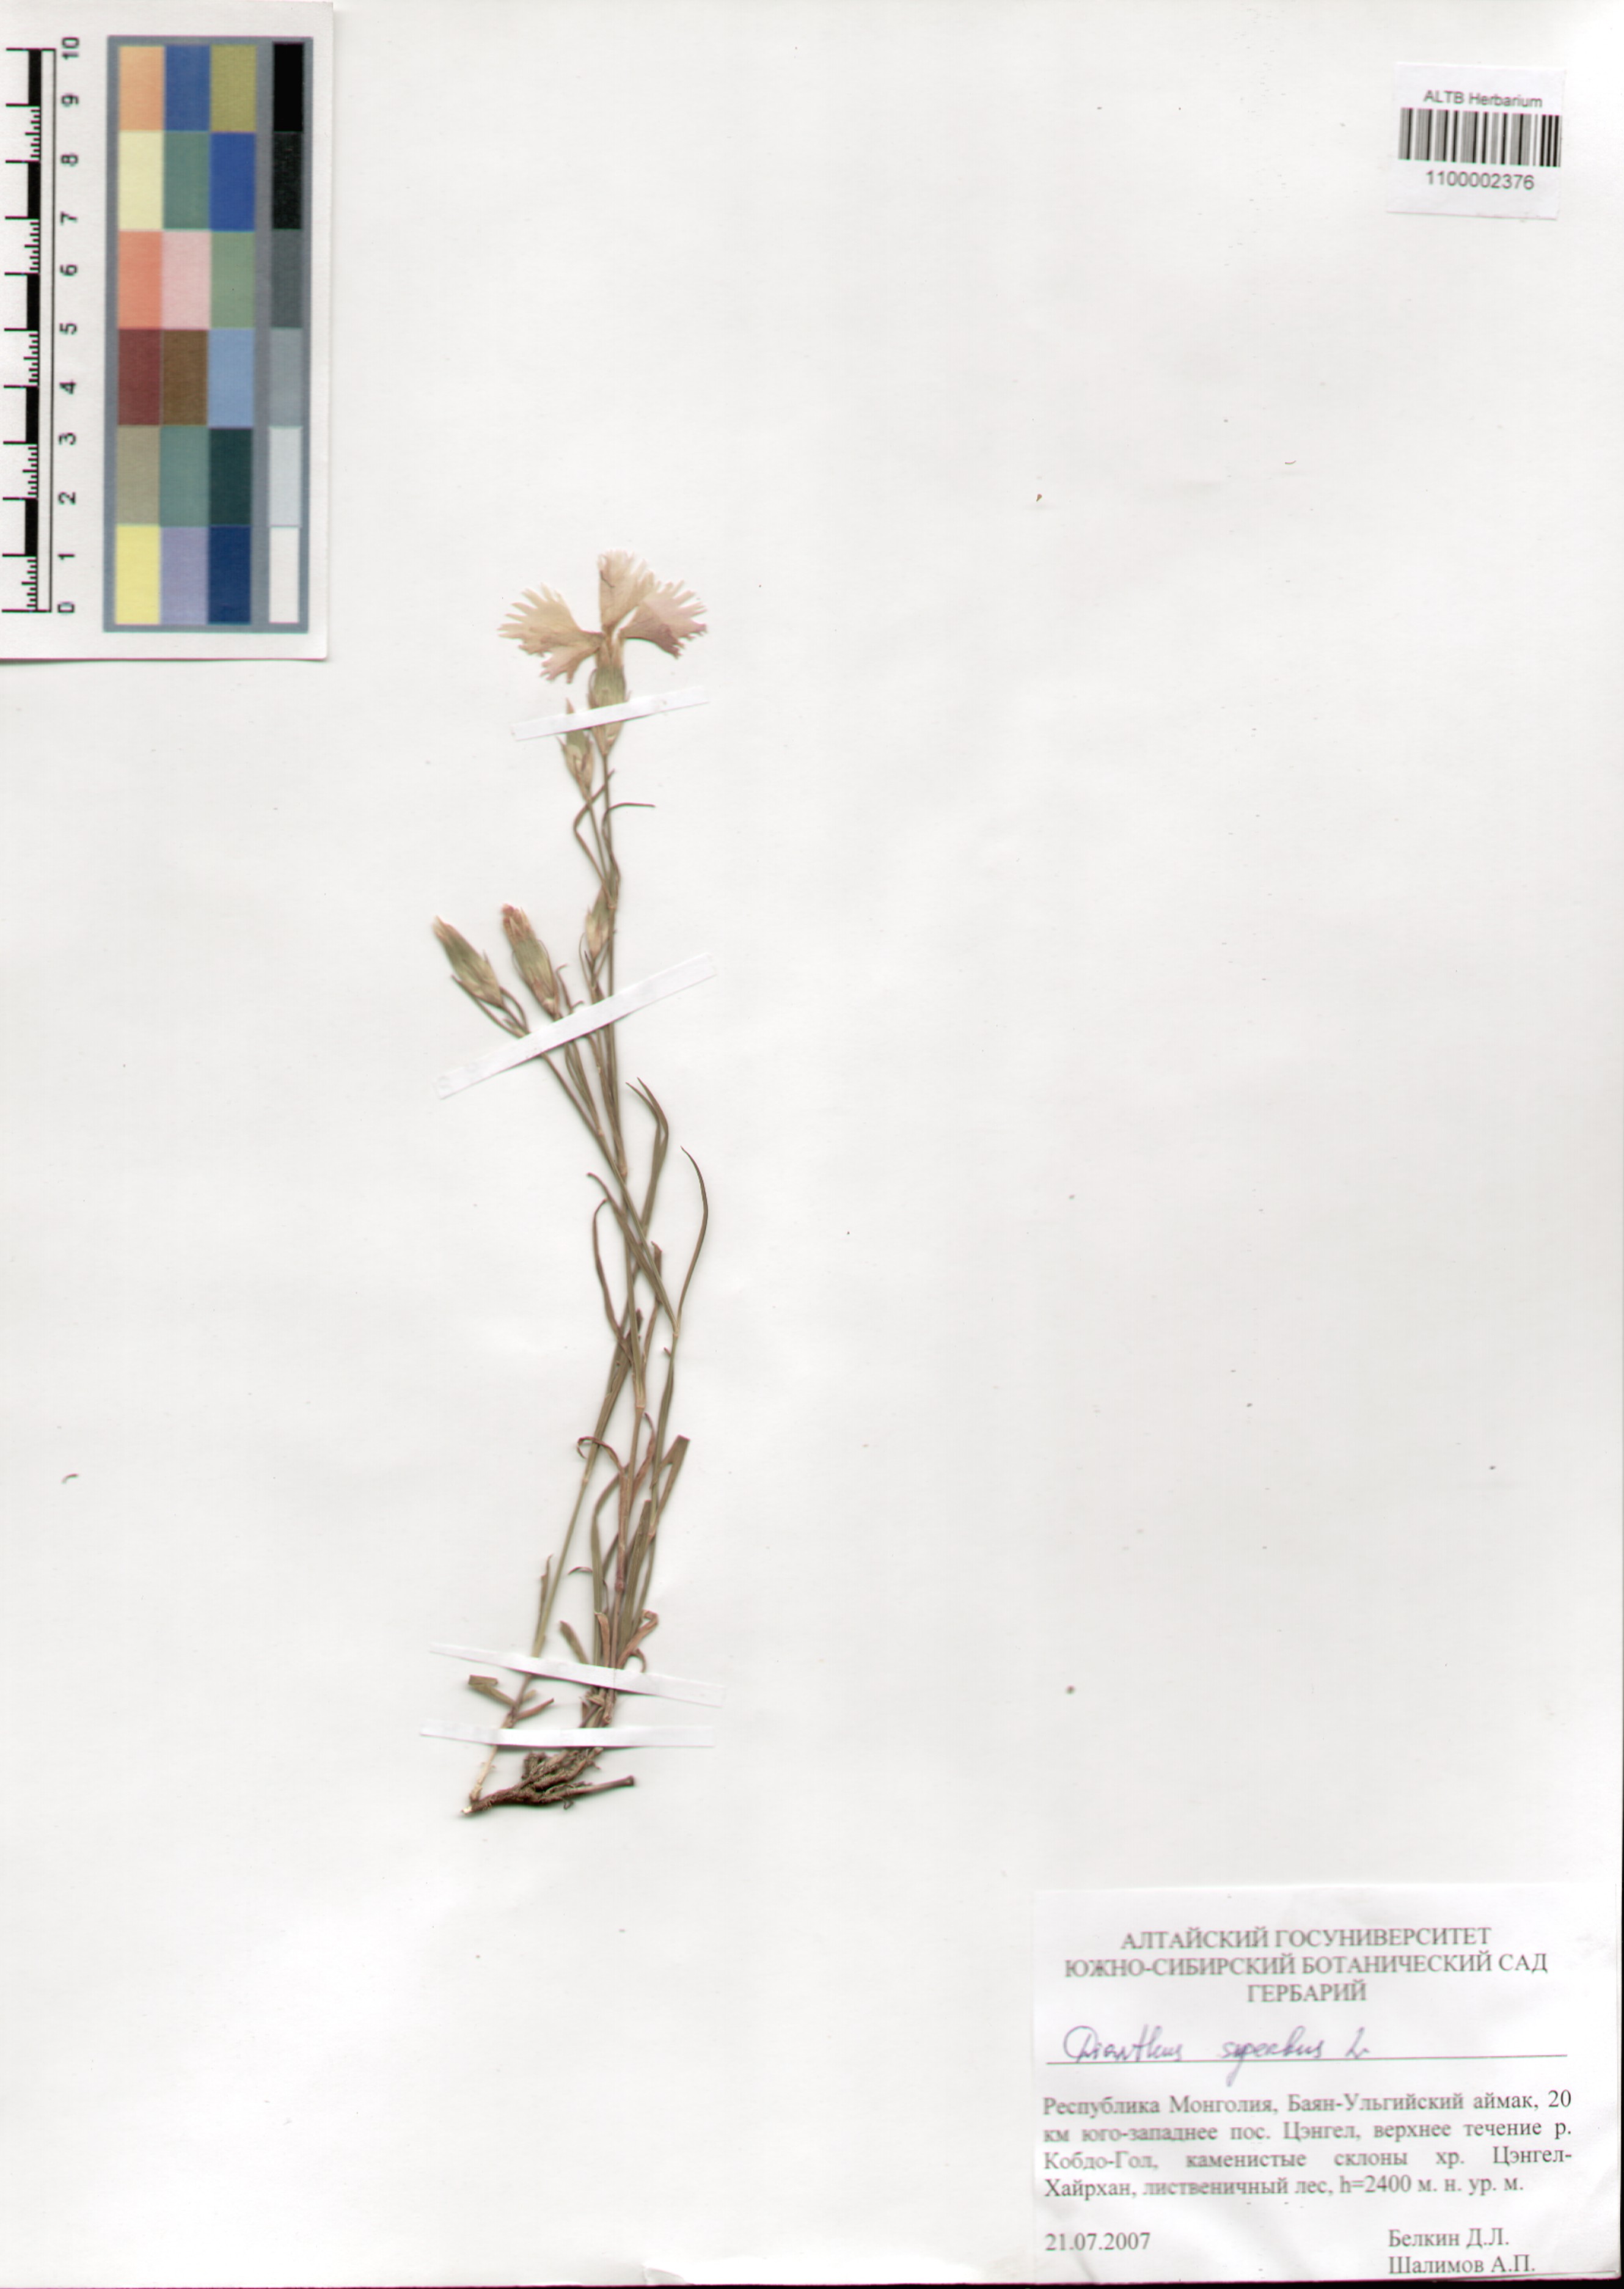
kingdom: Plantae
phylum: Tracheophyta
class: Magnoliopsida
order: Caryophyllales
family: Caryophyllaceae
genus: Dianthus
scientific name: Dianthus superbus
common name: Fringed pink
